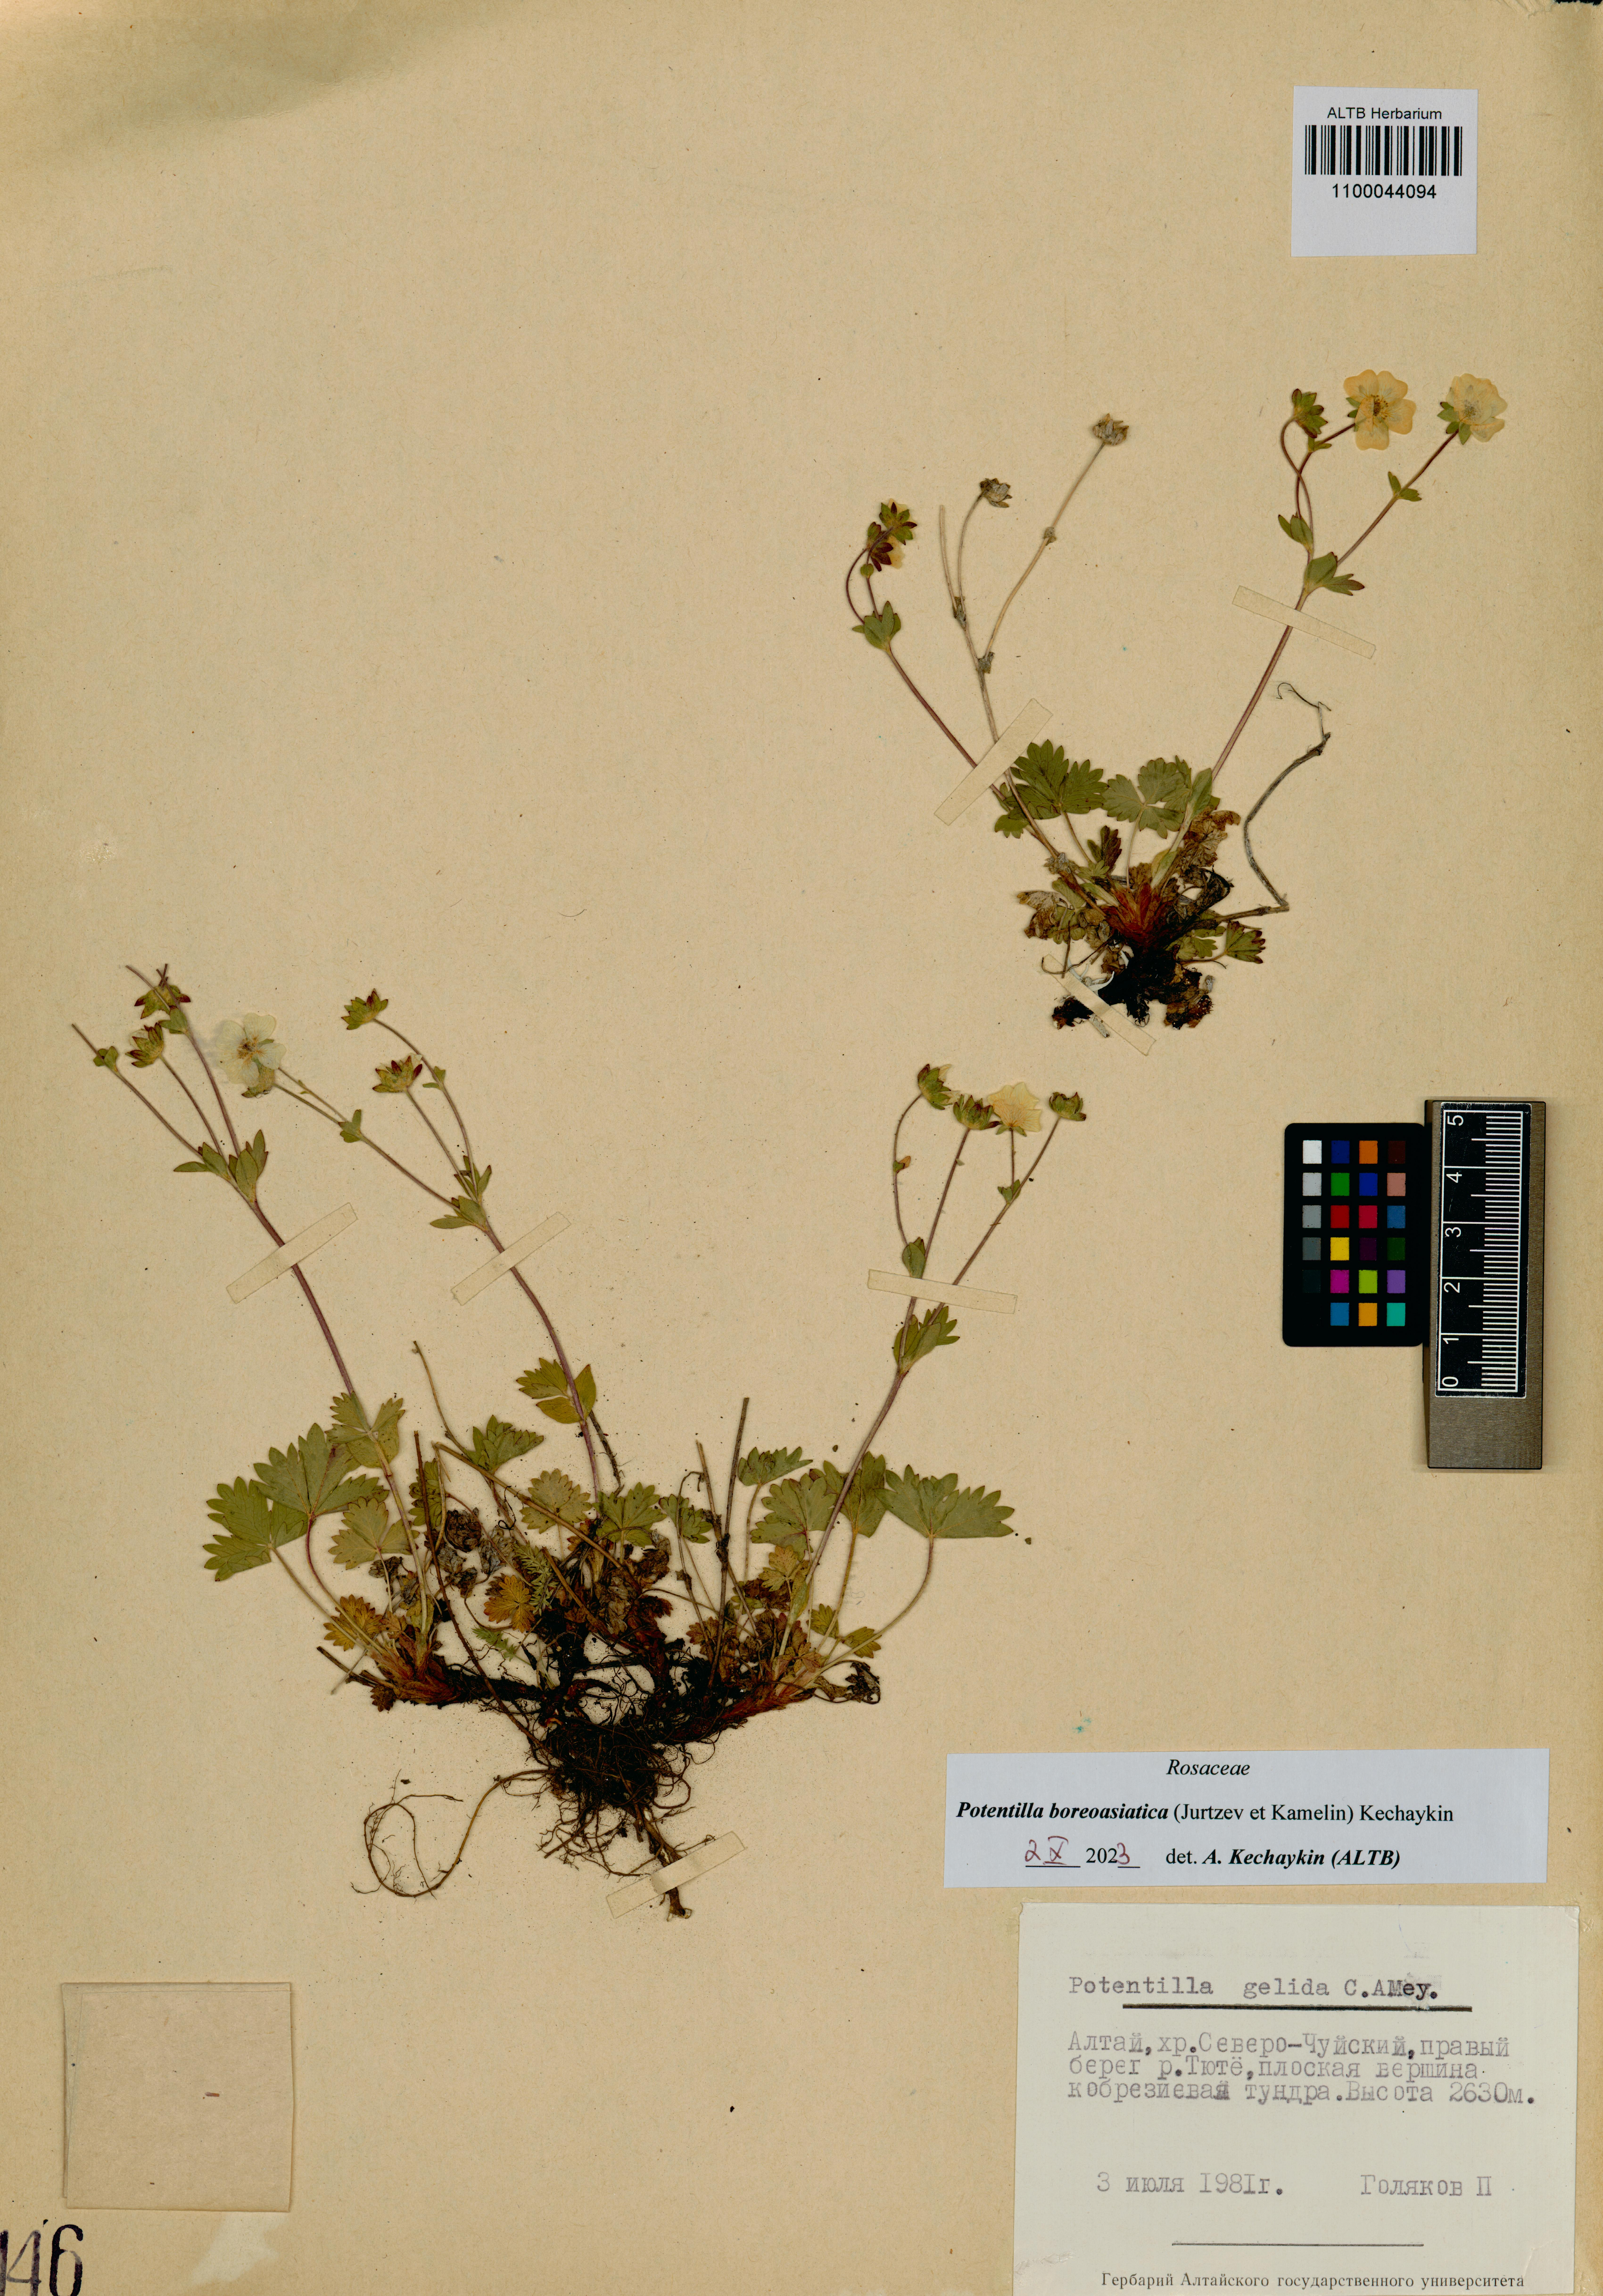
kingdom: Plantae
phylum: Tracheophyta
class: Magnoliopsida
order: Rosales
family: Rosaceae
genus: Potentilla
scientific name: Potentilla
